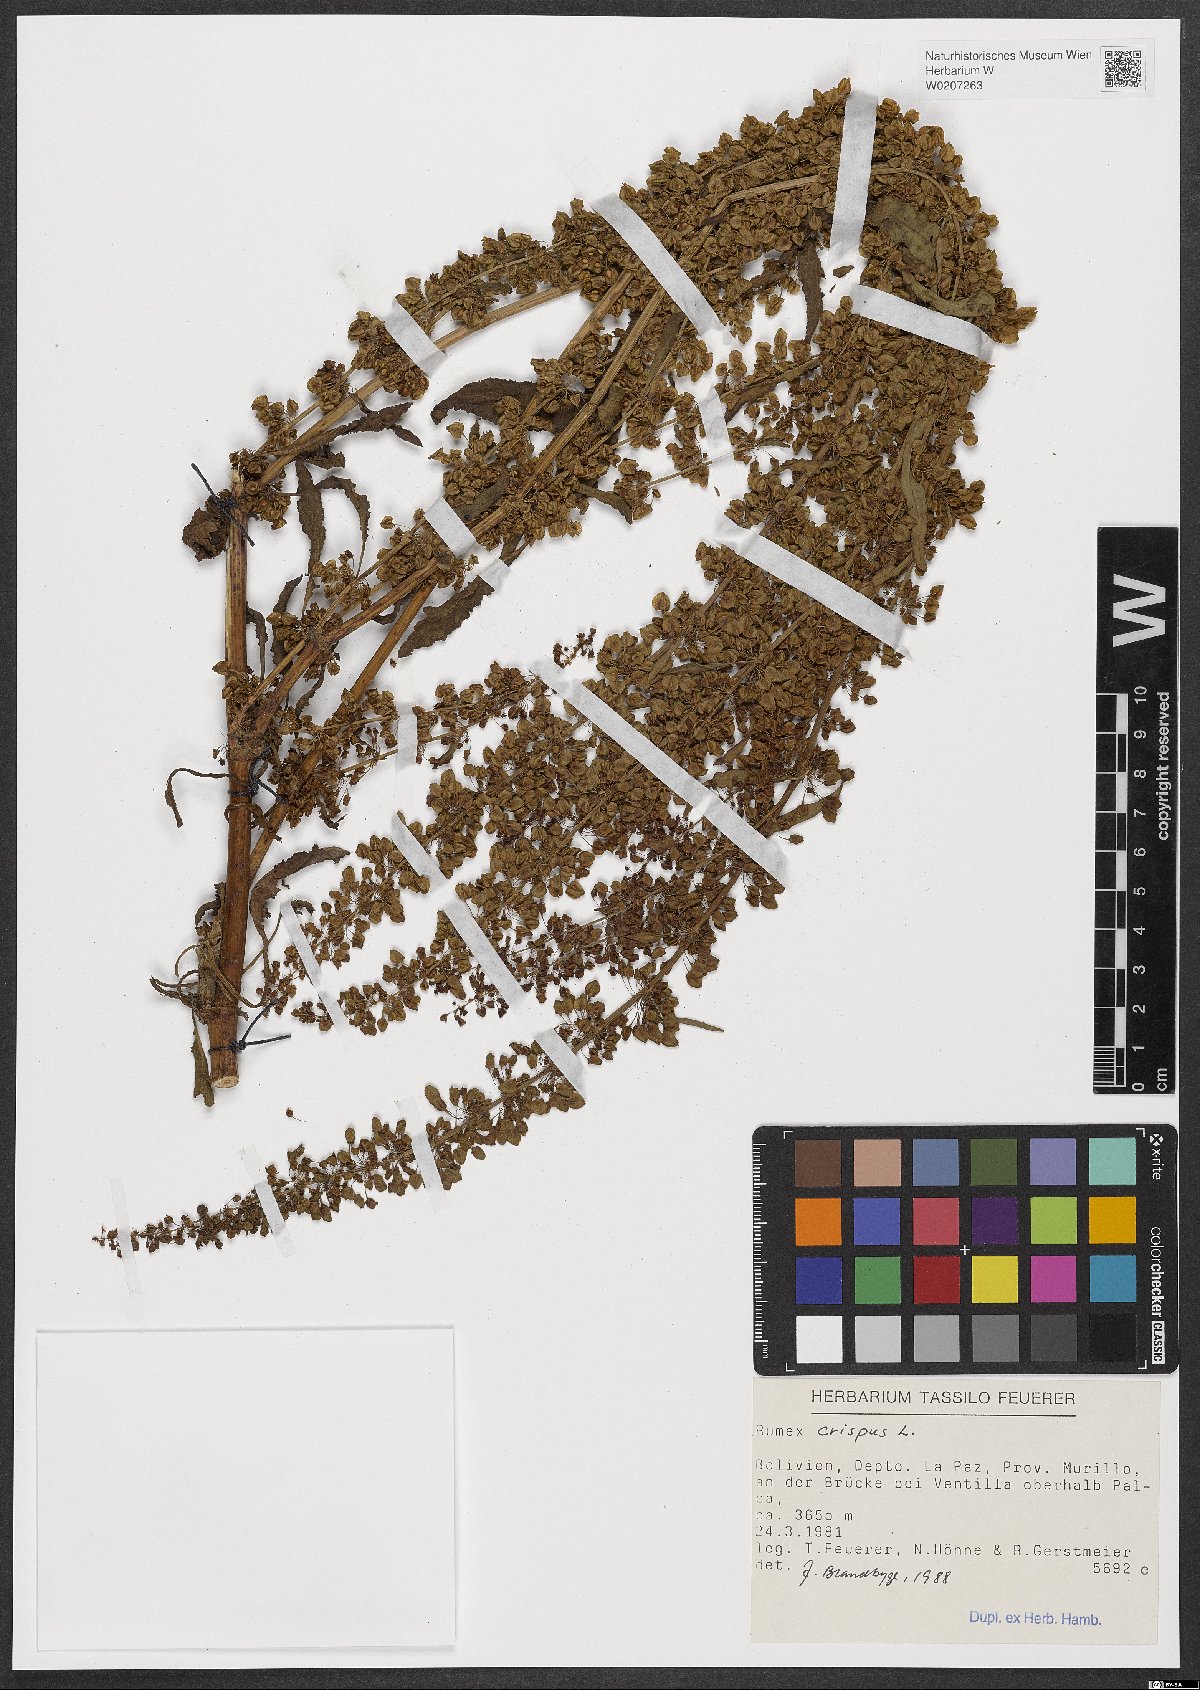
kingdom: Plantae
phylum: Tracheophyta
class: Magnoliopsida
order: Caryophyllales
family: Polygonaceae
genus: Rumex
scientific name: Rumex crispus
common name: Curled dock
